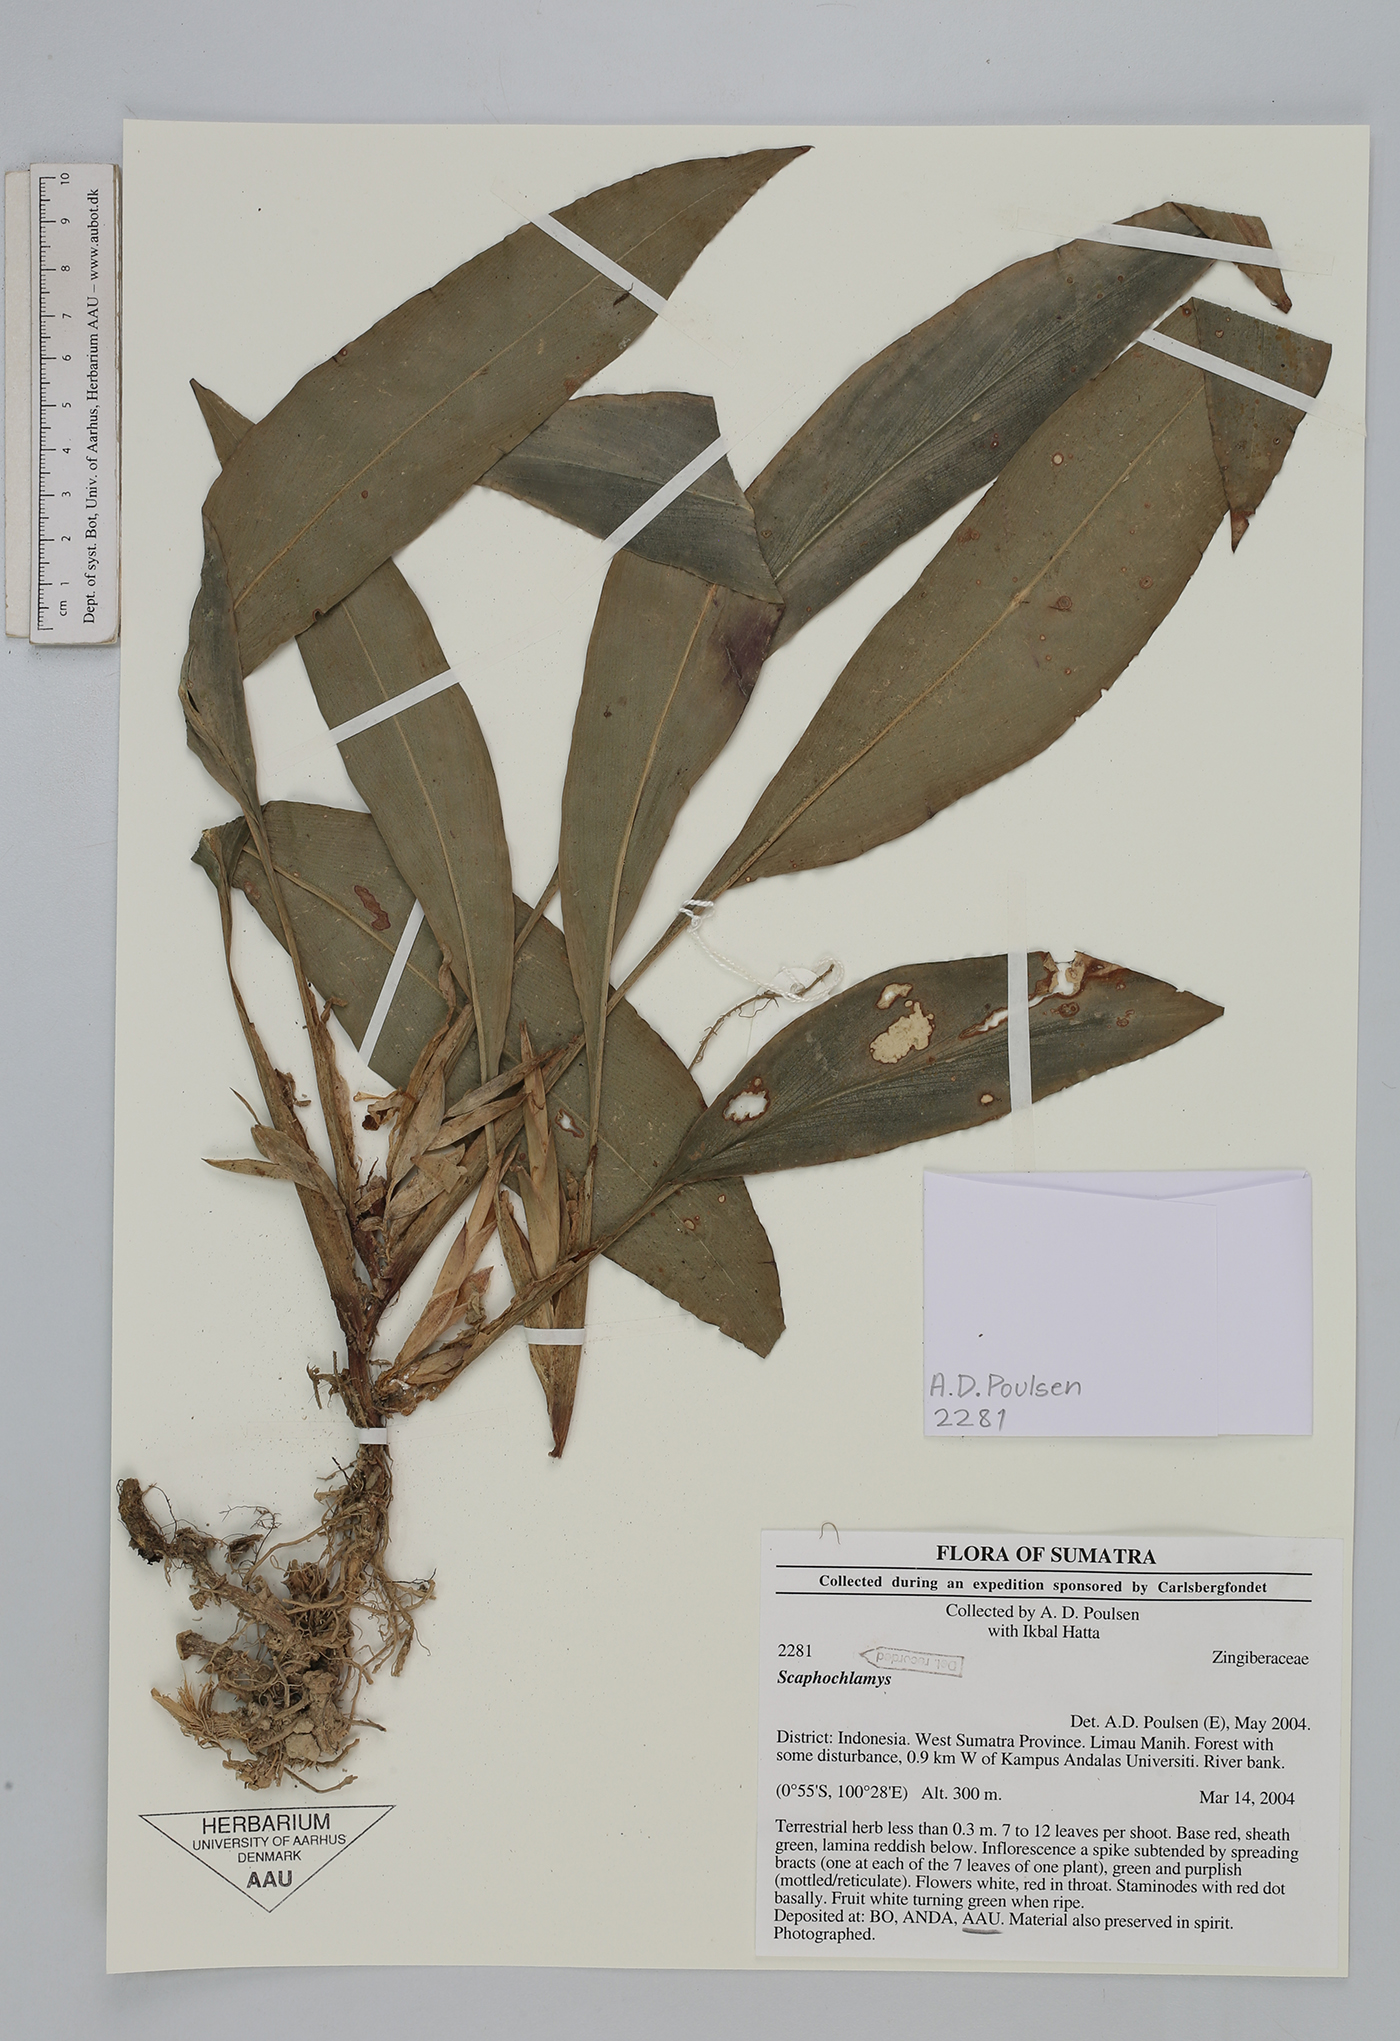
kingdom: Plantae
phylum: Tracheophyta
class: Liliopsida
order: Zingiberales
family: Zingiberaceae
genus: Scaphochlamys
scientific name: Scaphochlamys
